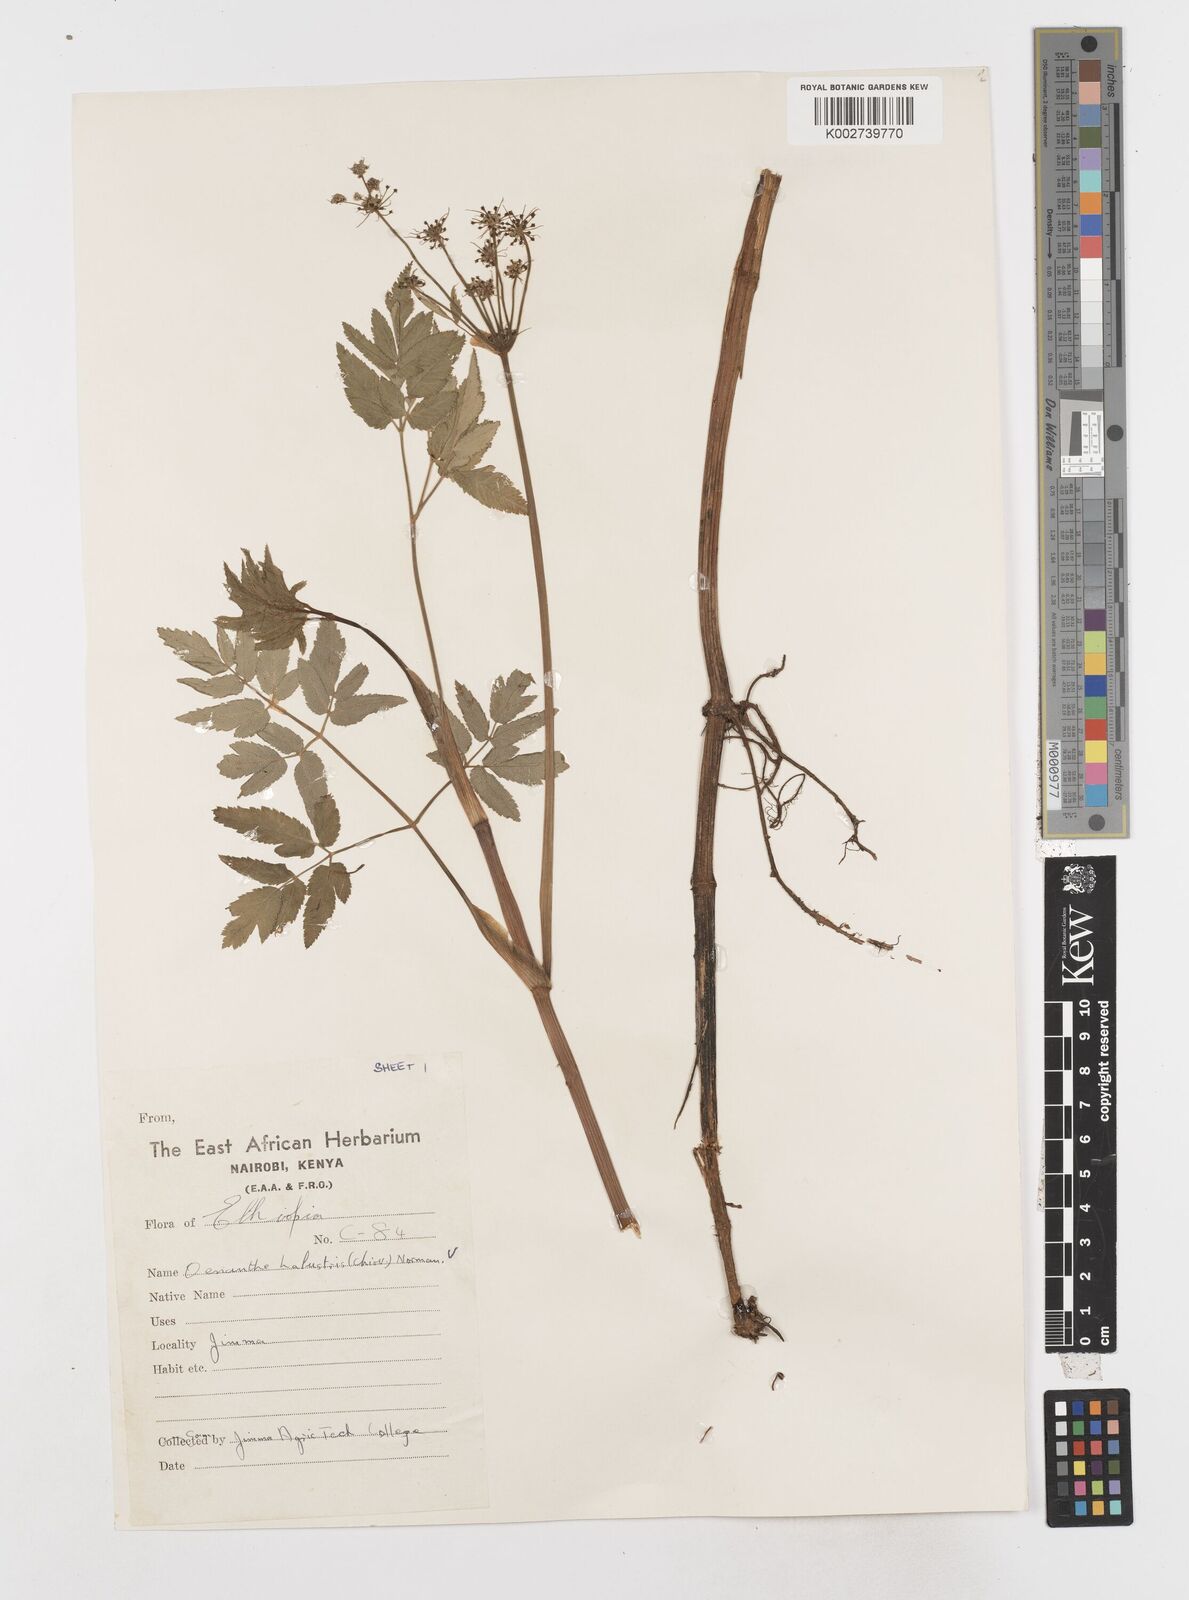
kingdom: Plantae
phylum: Tracheophyta
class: Magnoliopsida
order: Apiales
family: Apiaceae
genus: Oenanthe
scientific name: Oenanthe palustris
